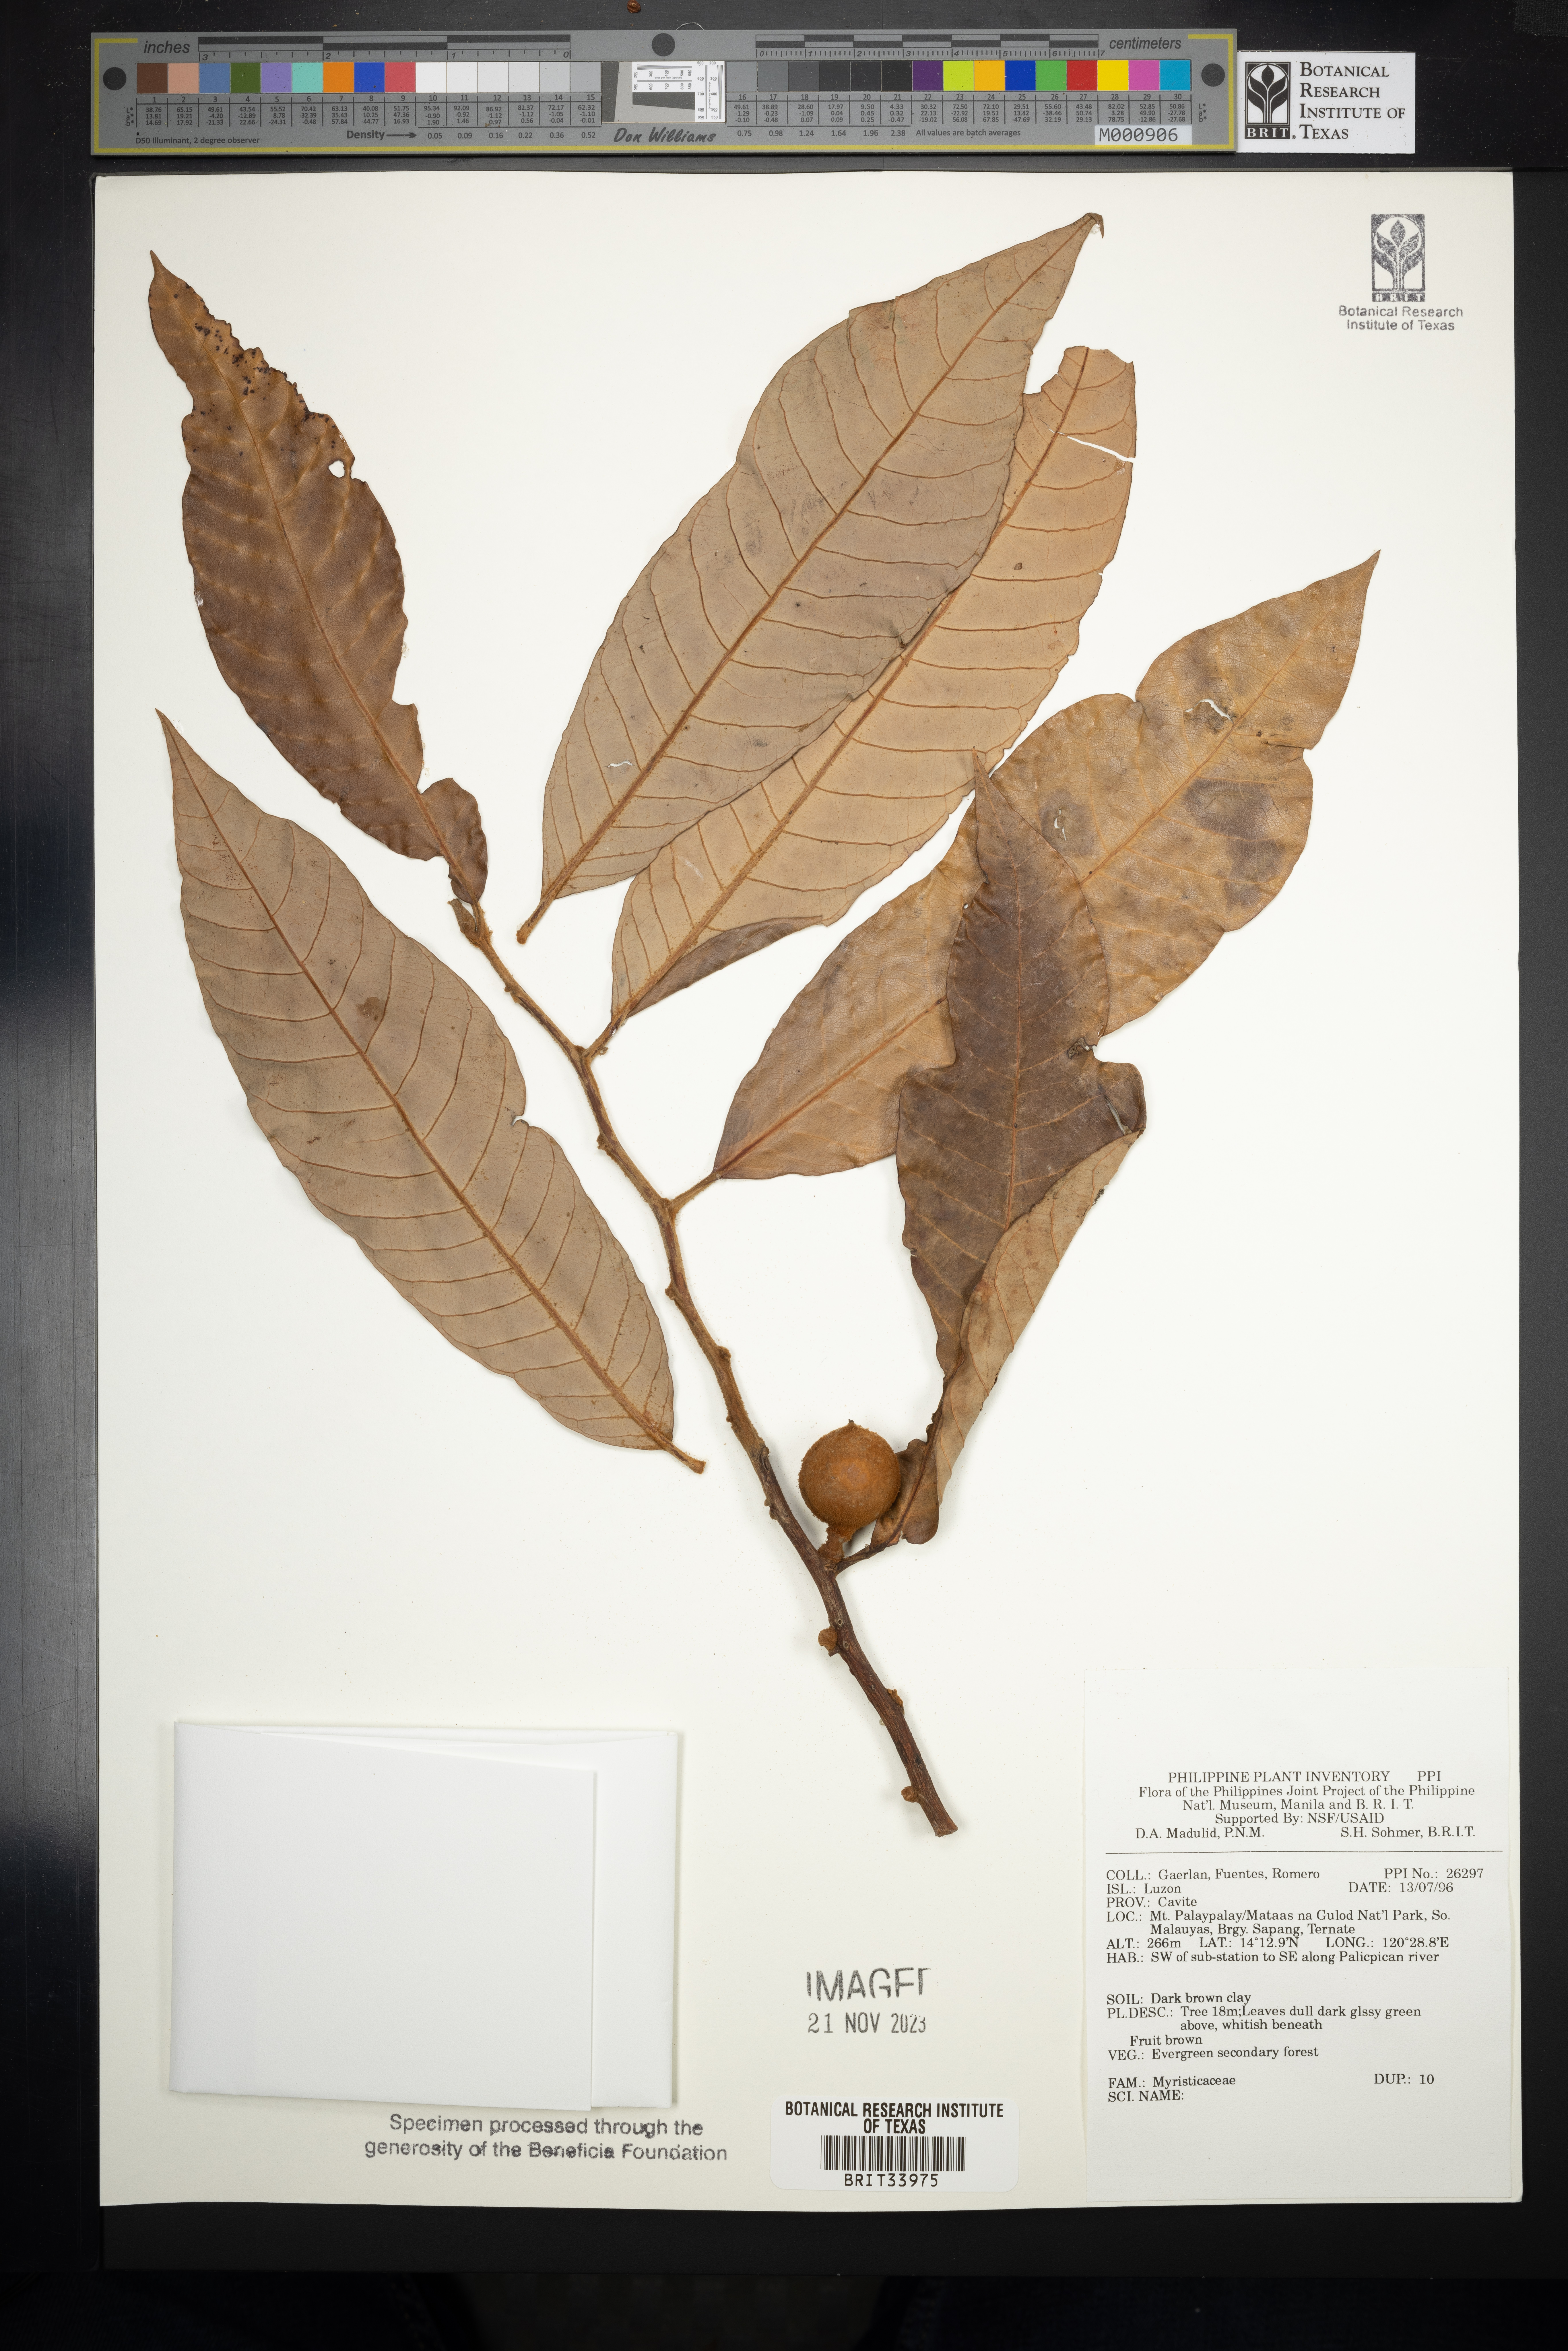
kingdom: Plantae
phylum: Tracheophyta
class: Magnoliopsida
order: Magnoliales
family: Myristicaceae
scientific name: Myristicaceae
